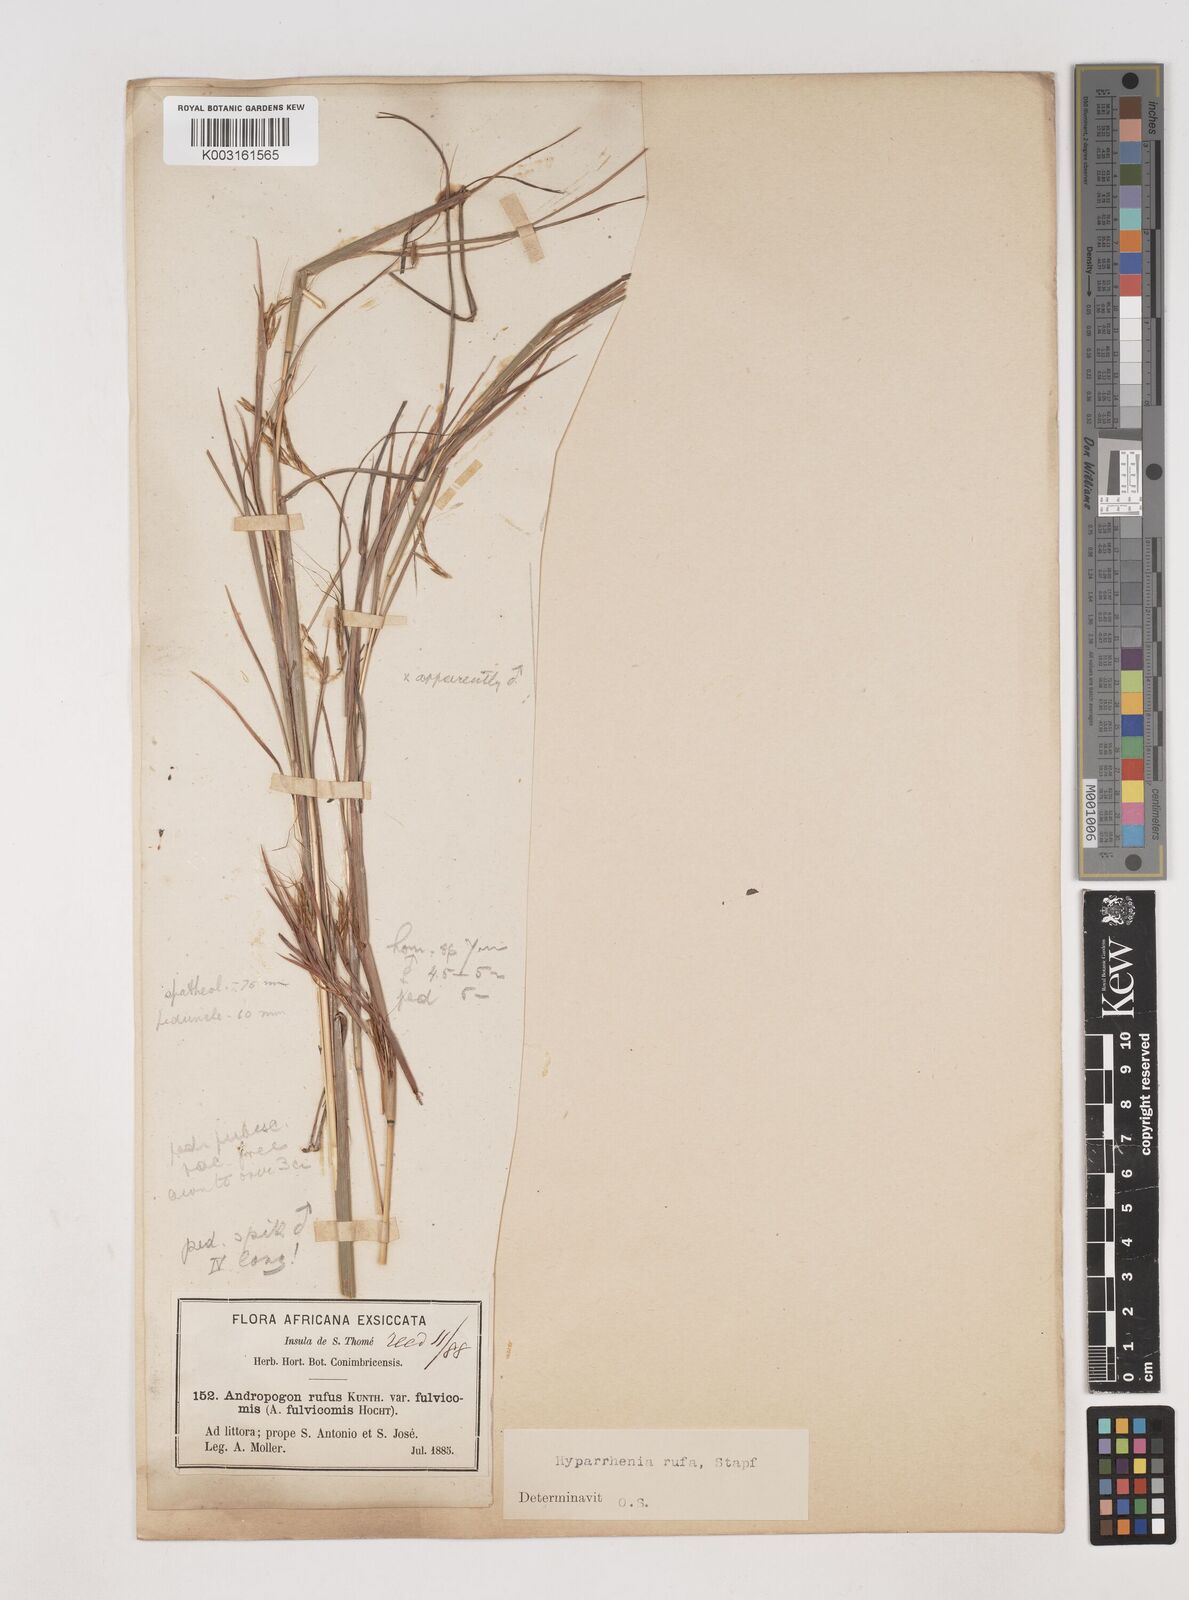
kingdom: Plantae
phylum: Tracheophyta
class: Liliopsida
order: Poales
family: Poaceae
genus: Hyparrhenia
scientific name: Hyparrhenia rufa
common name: Jaraguagrass
